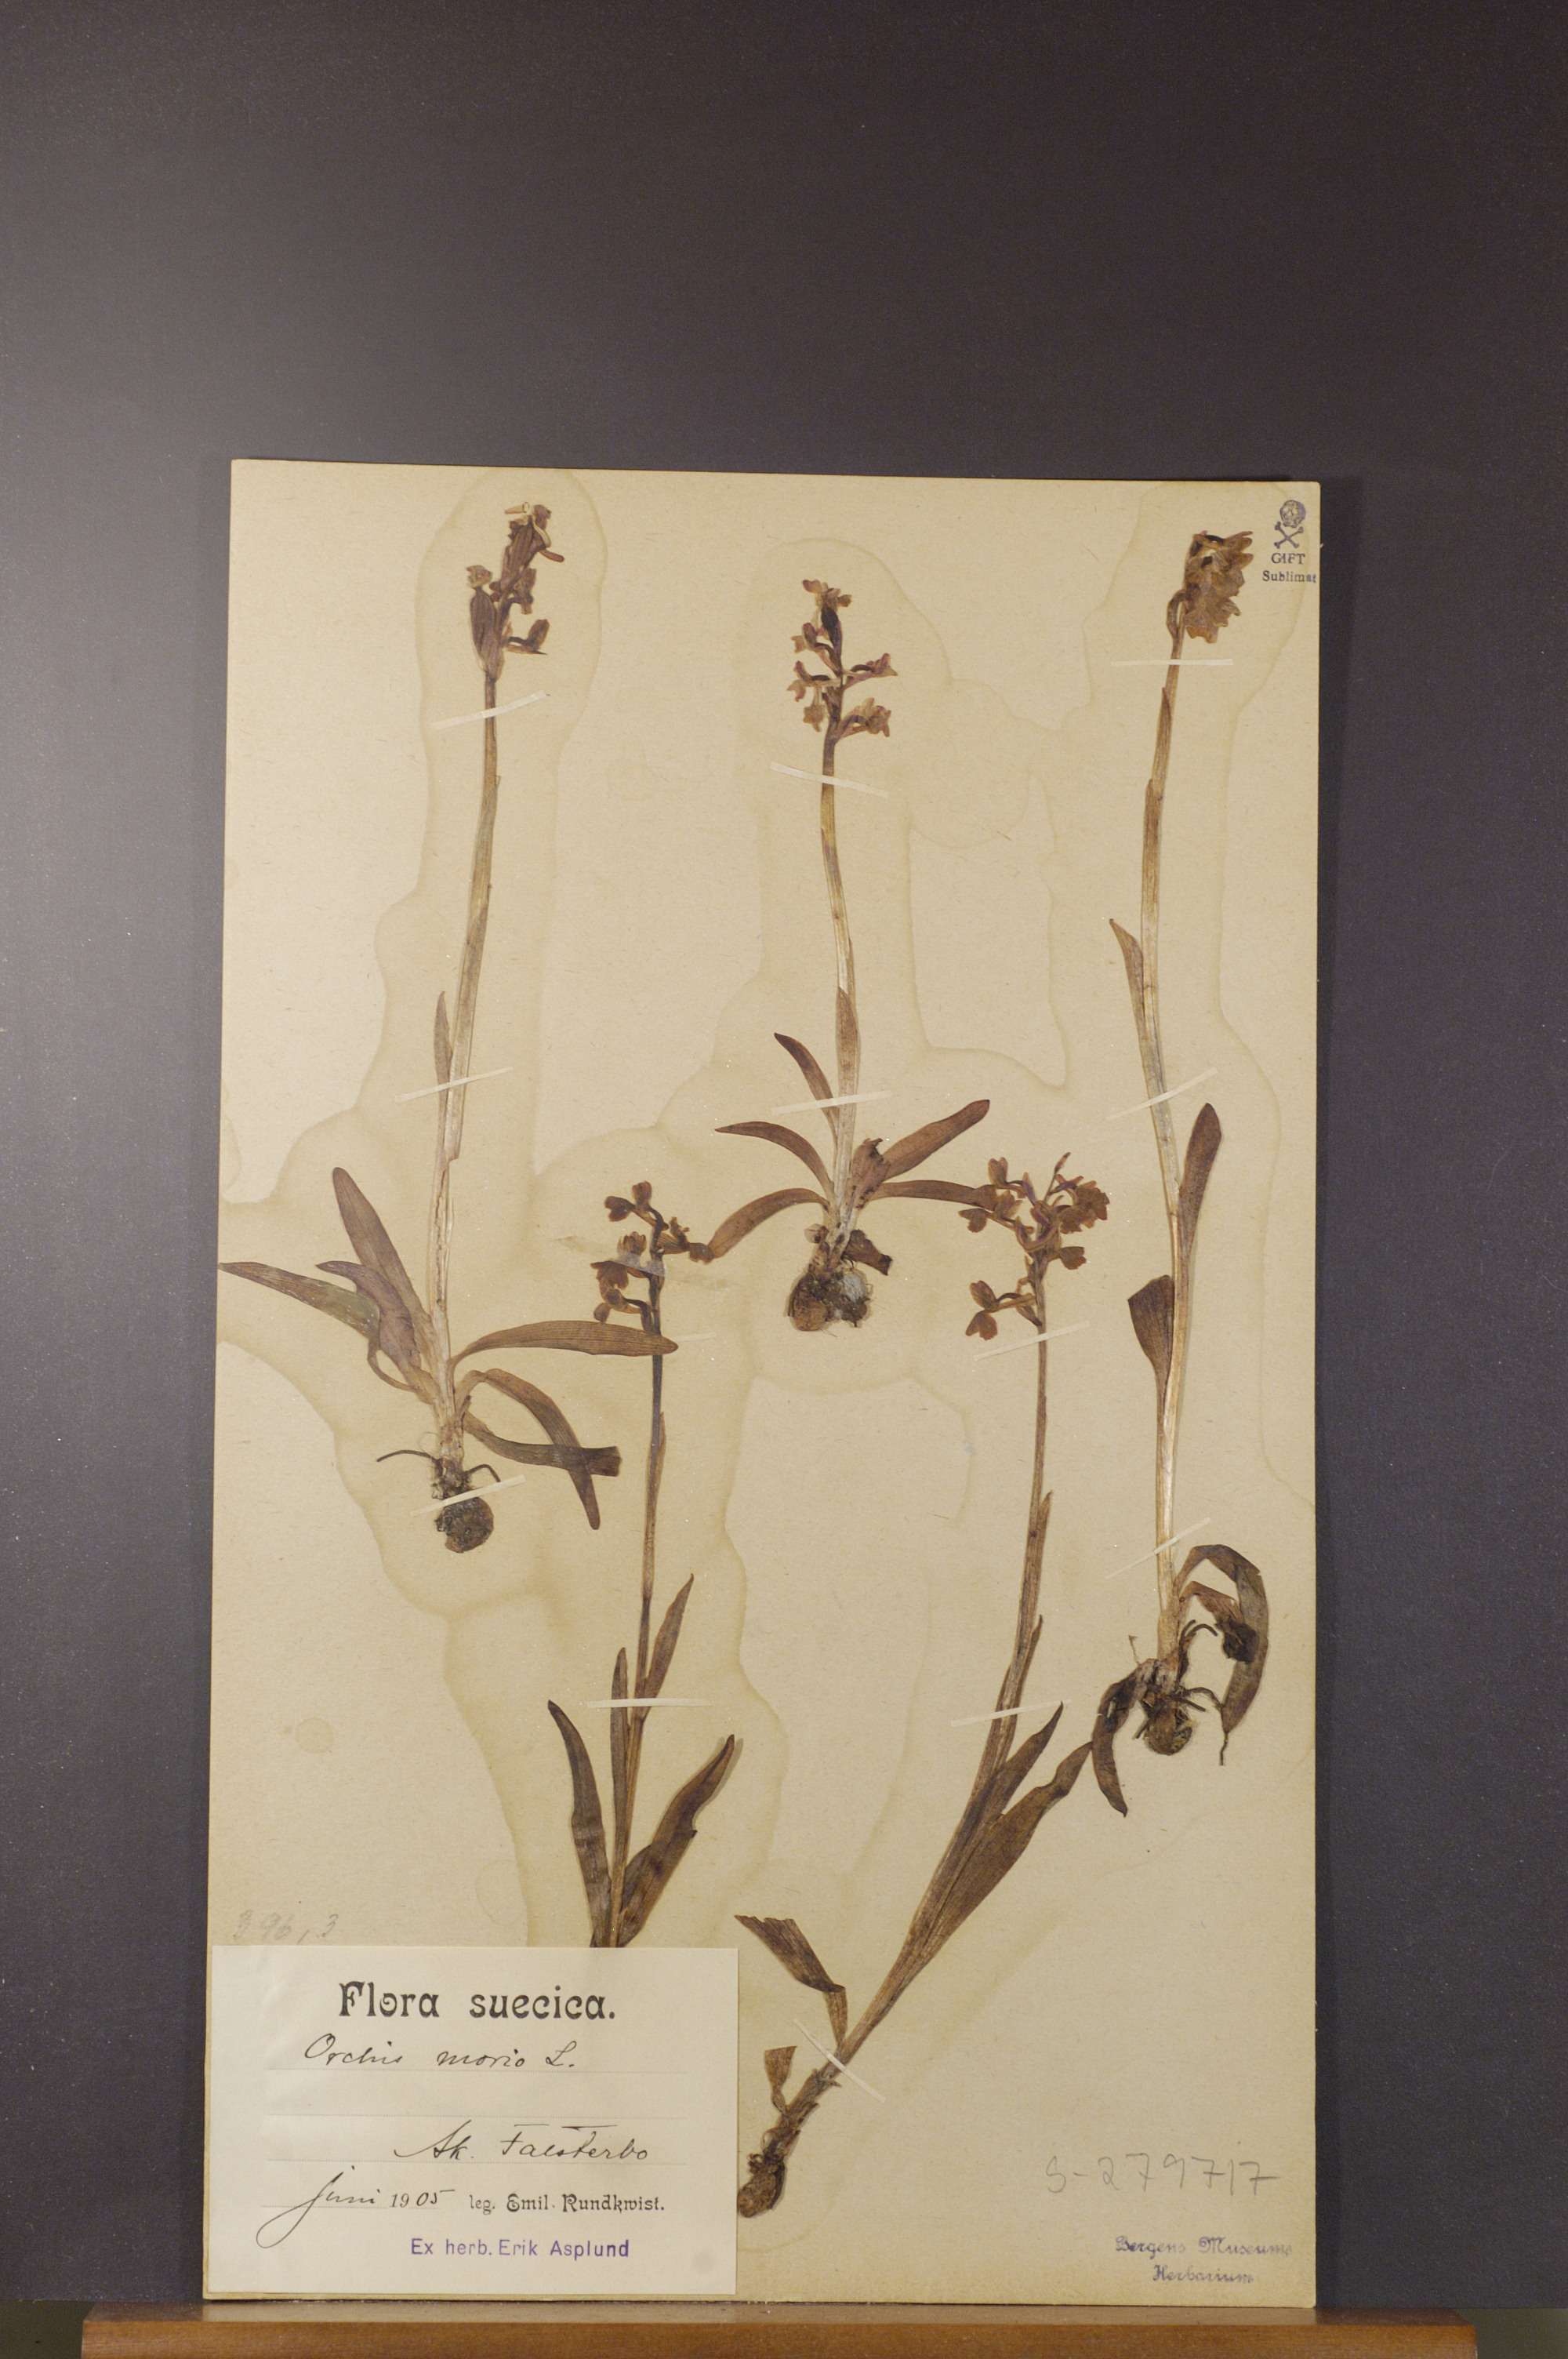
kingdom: Plantae
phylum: Tracheophyta
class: Liliopsida
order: Asparagales
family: Orchidaceae
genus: Anacamptis
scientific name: Anacamptis morio
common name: Green-winged orchid
